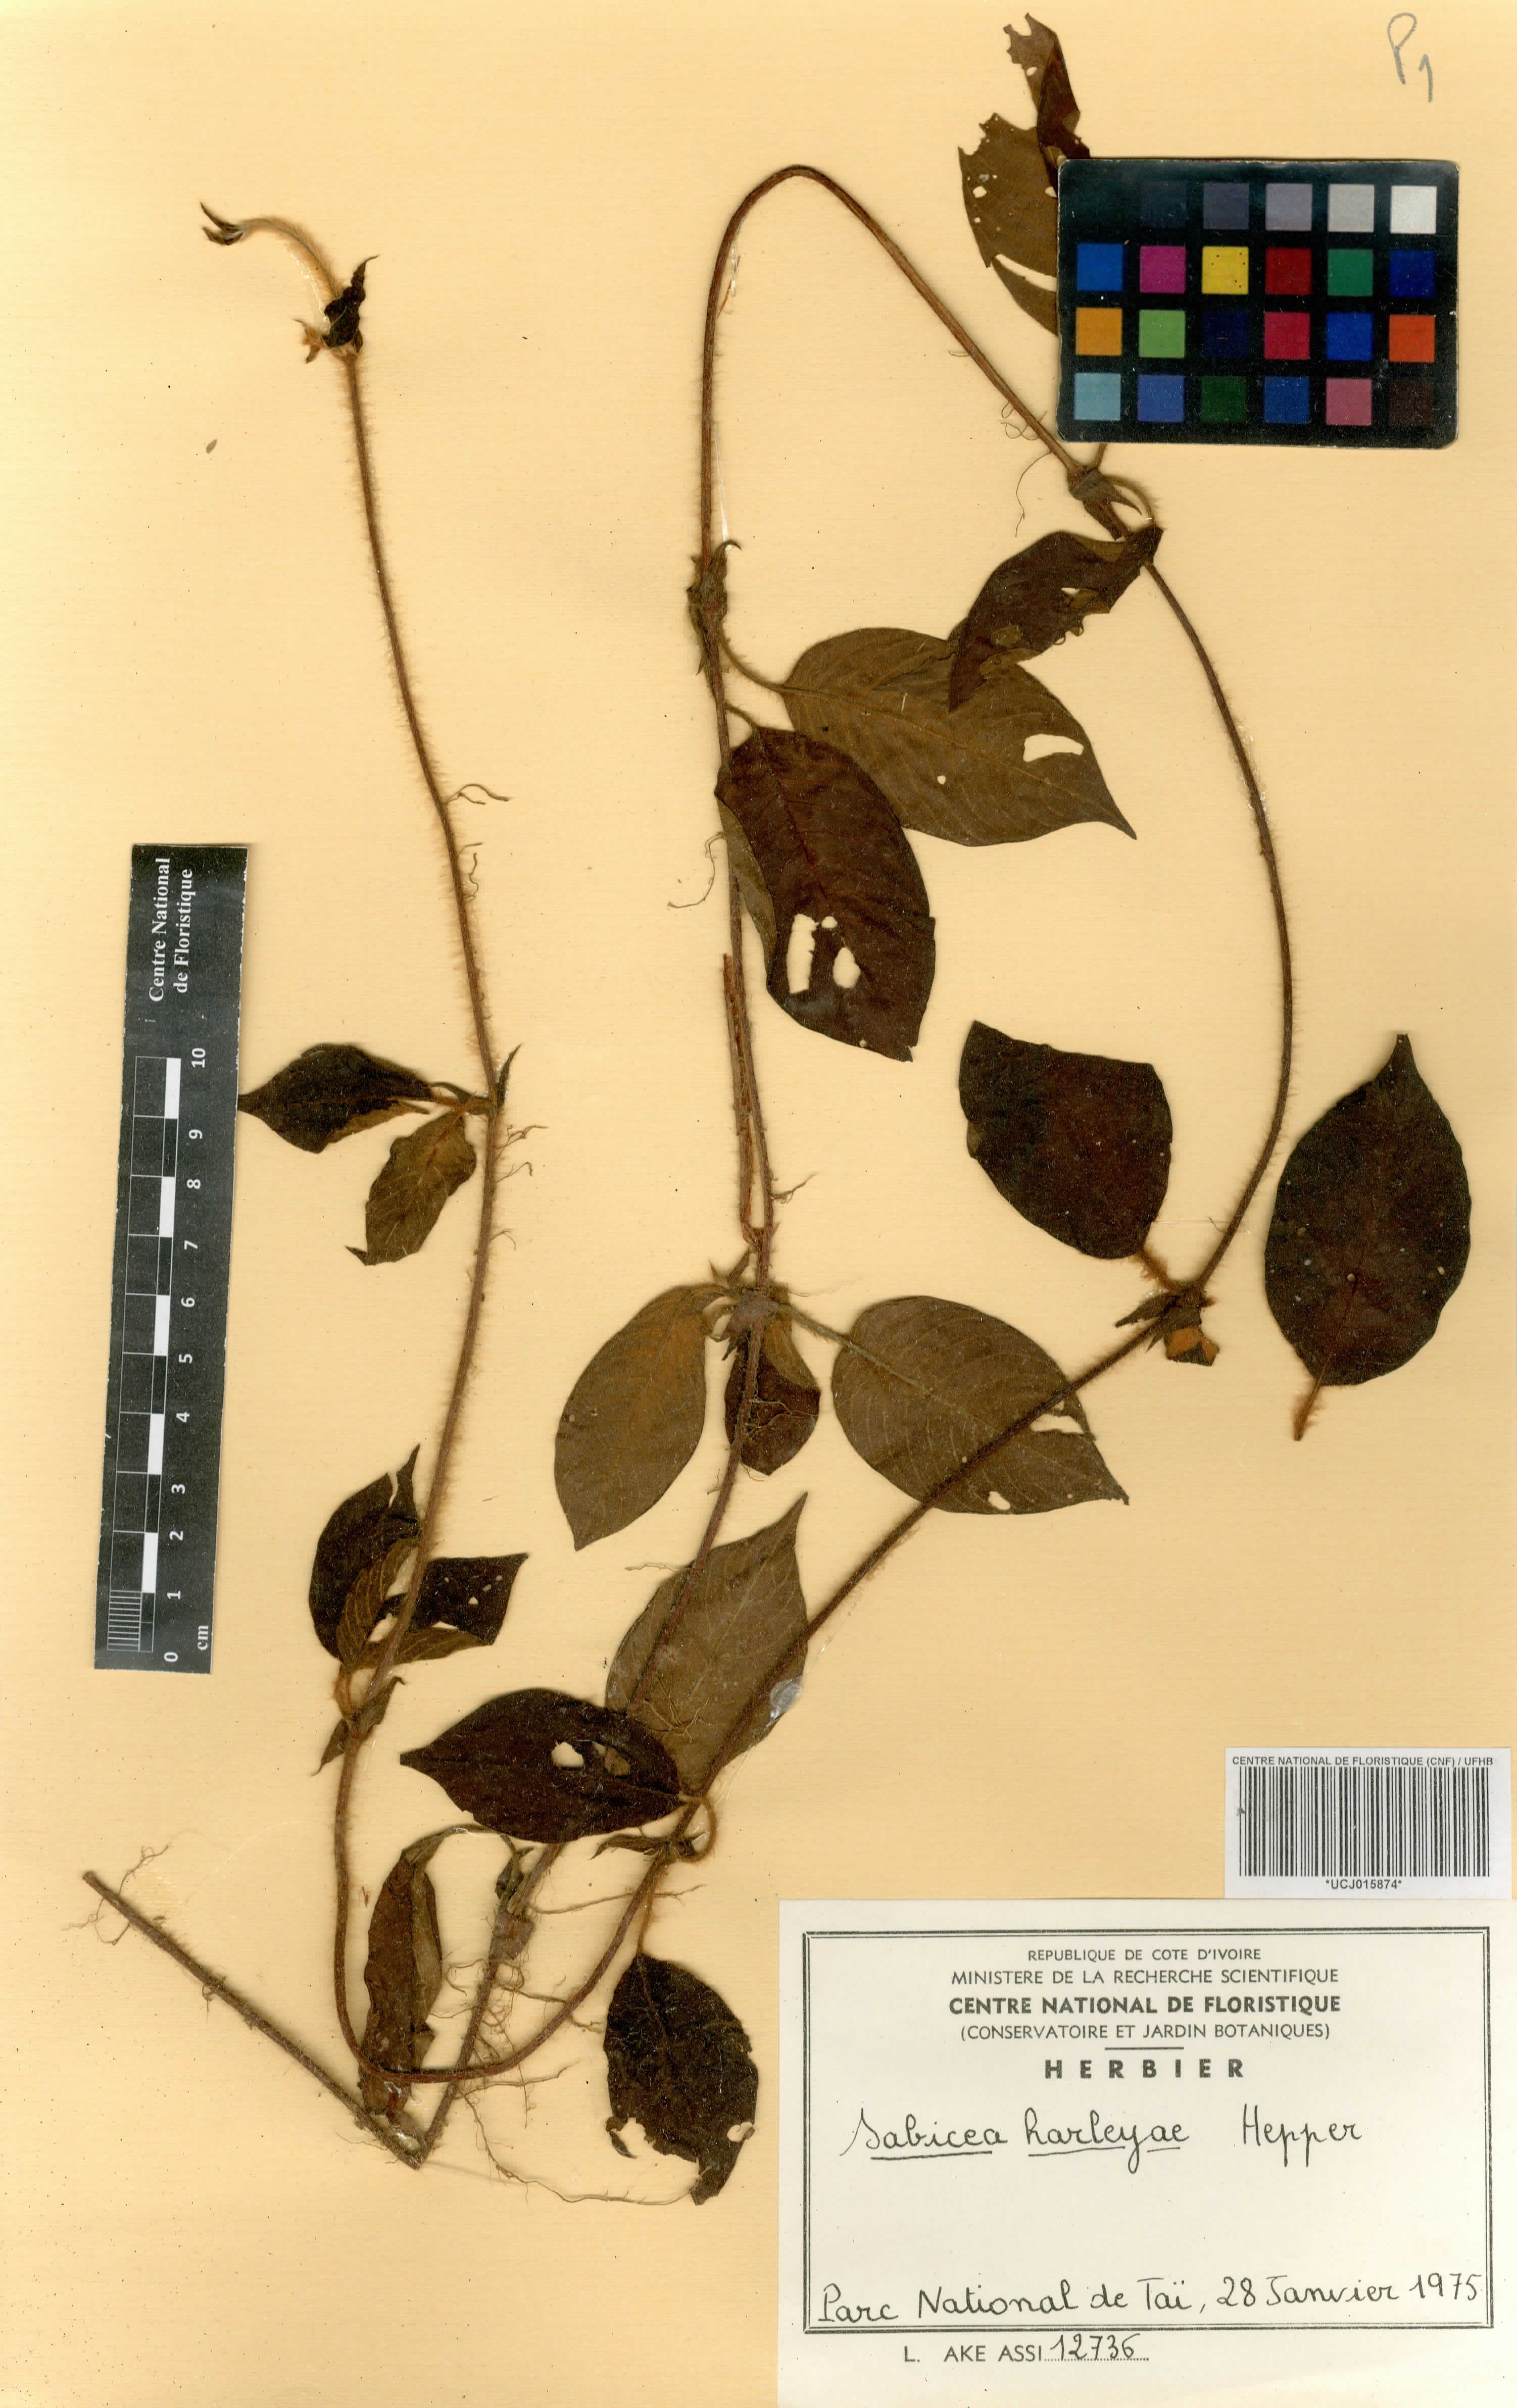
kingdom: Plantae
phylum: Tracheophyta
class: Magnoliopsida
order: Gentianales
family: Rubiaceae
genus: Sabicea
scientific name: Sabicea harleyae
